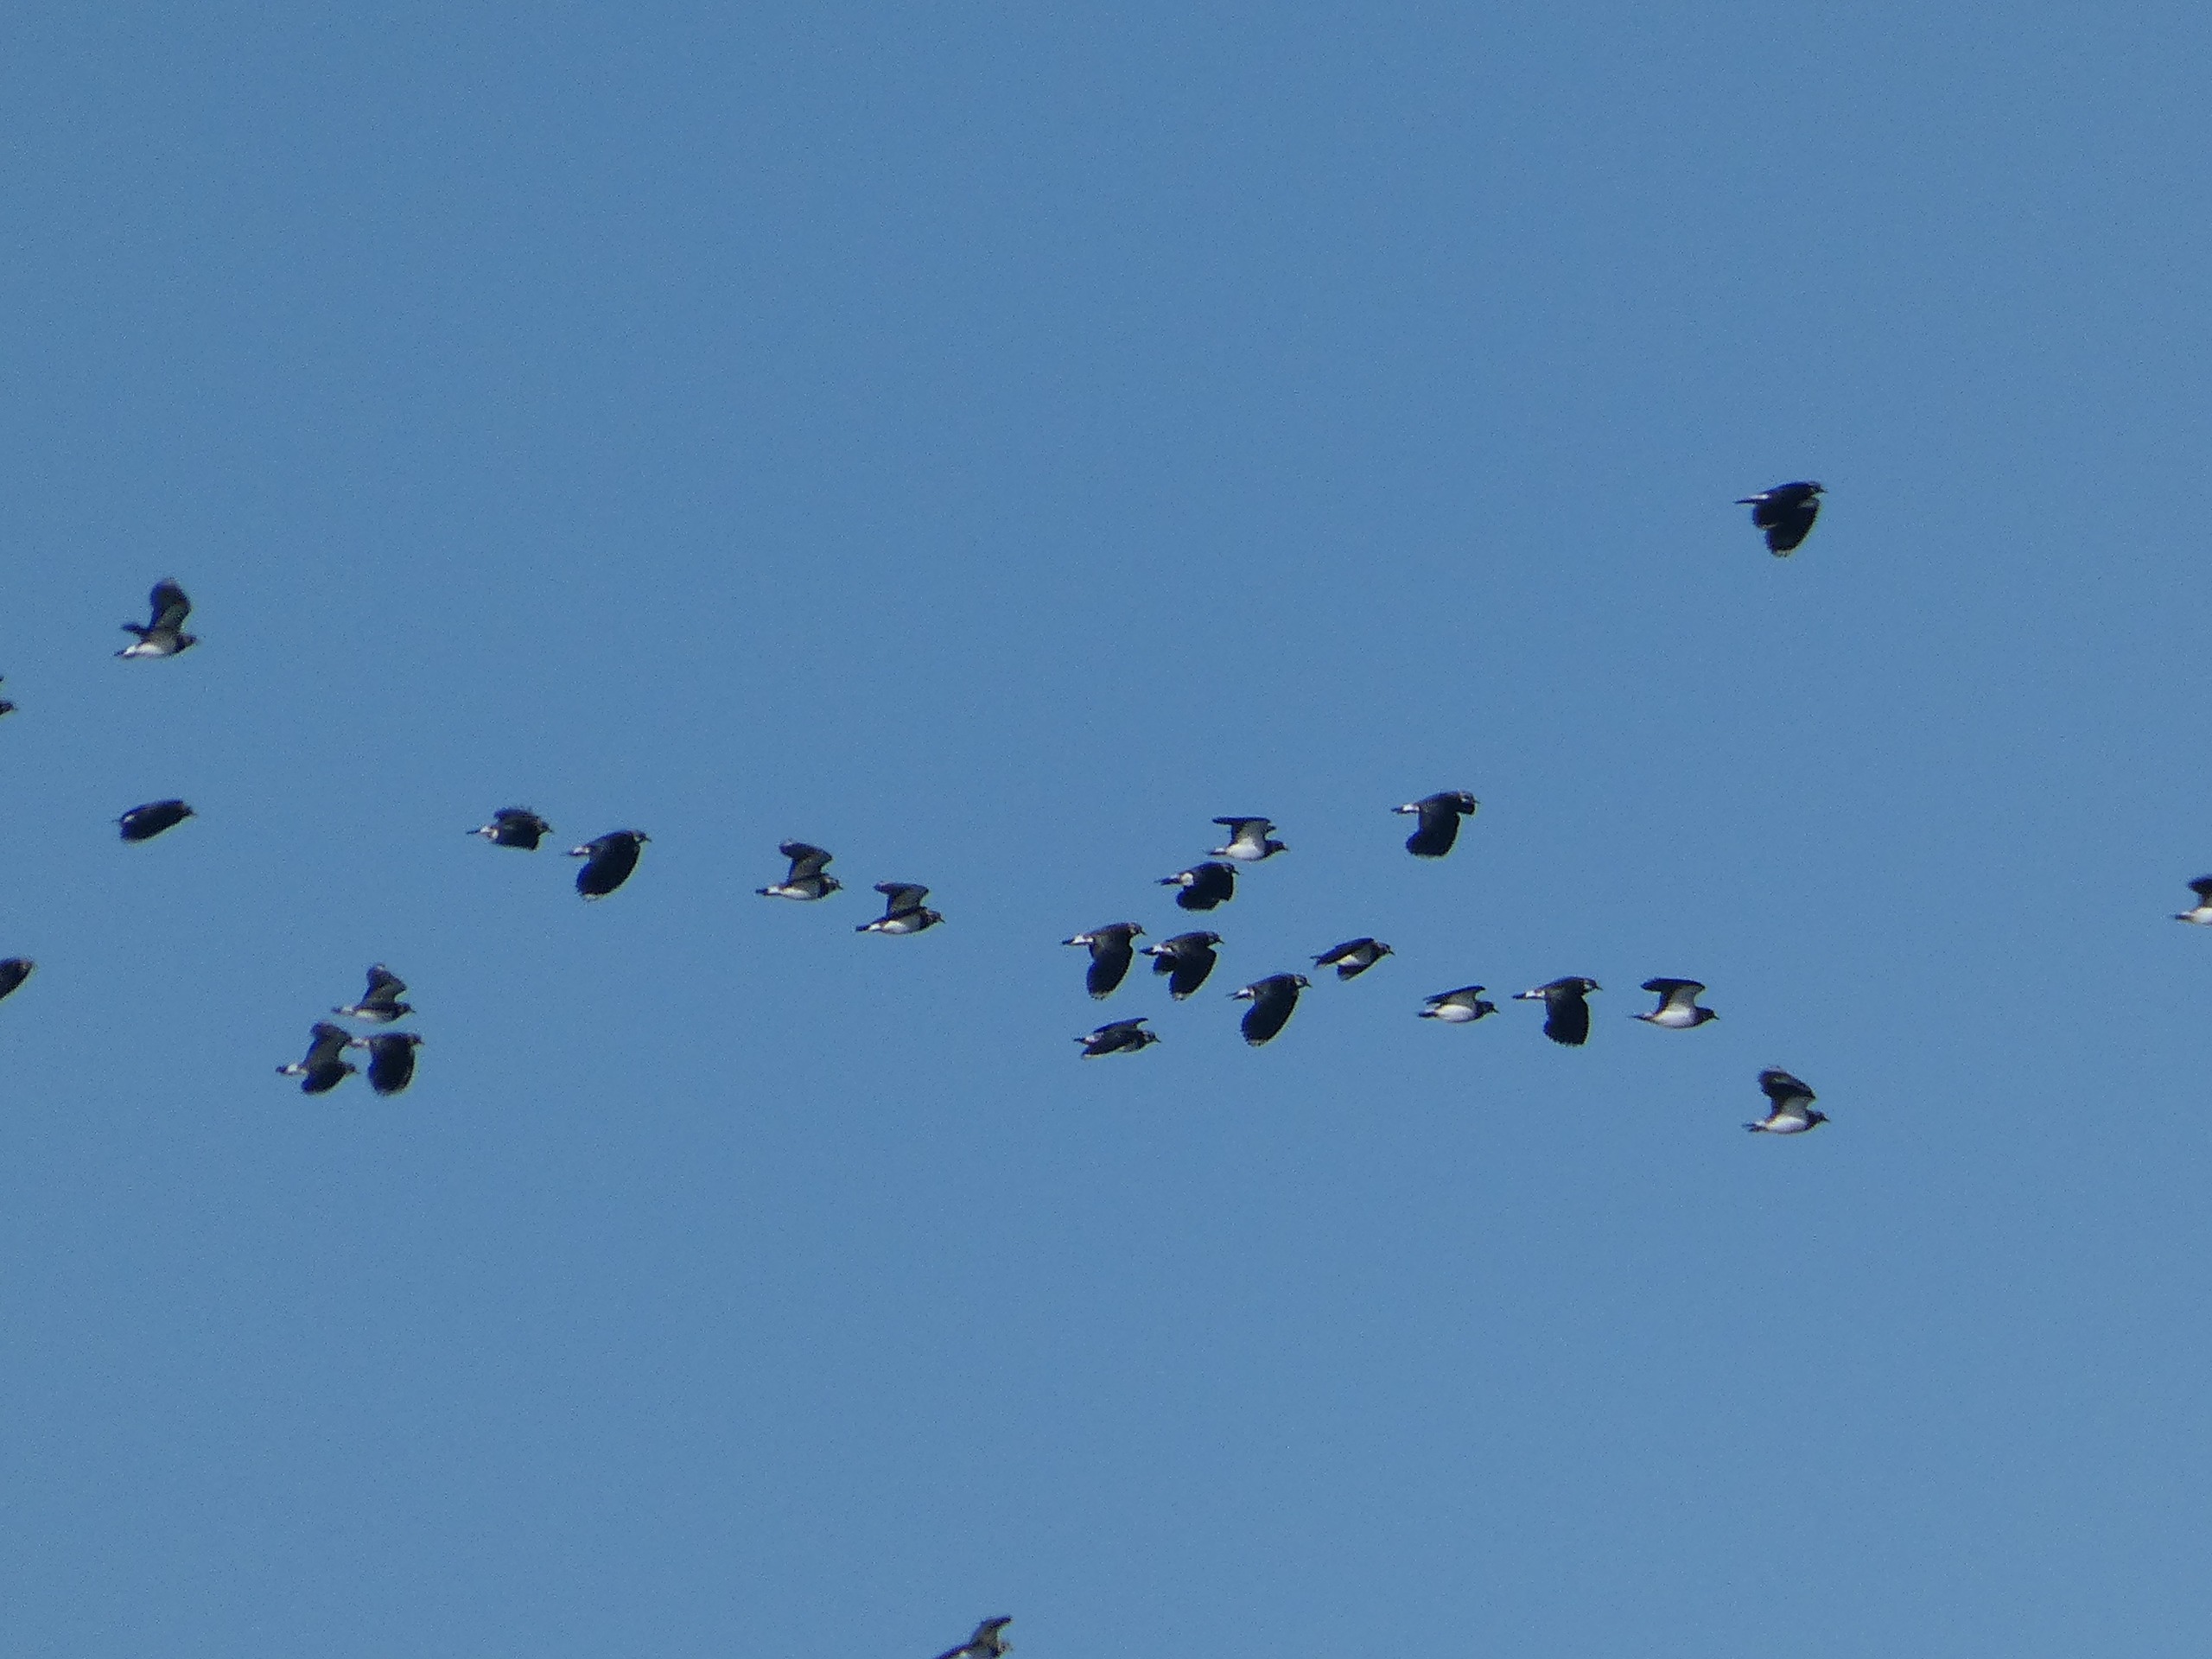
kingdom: Animalia
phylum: Chordata
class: Aves
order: Charadriiformes
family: Charadriidae
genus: Vanellus
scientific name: Vanellus vanellus
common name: Vibe
